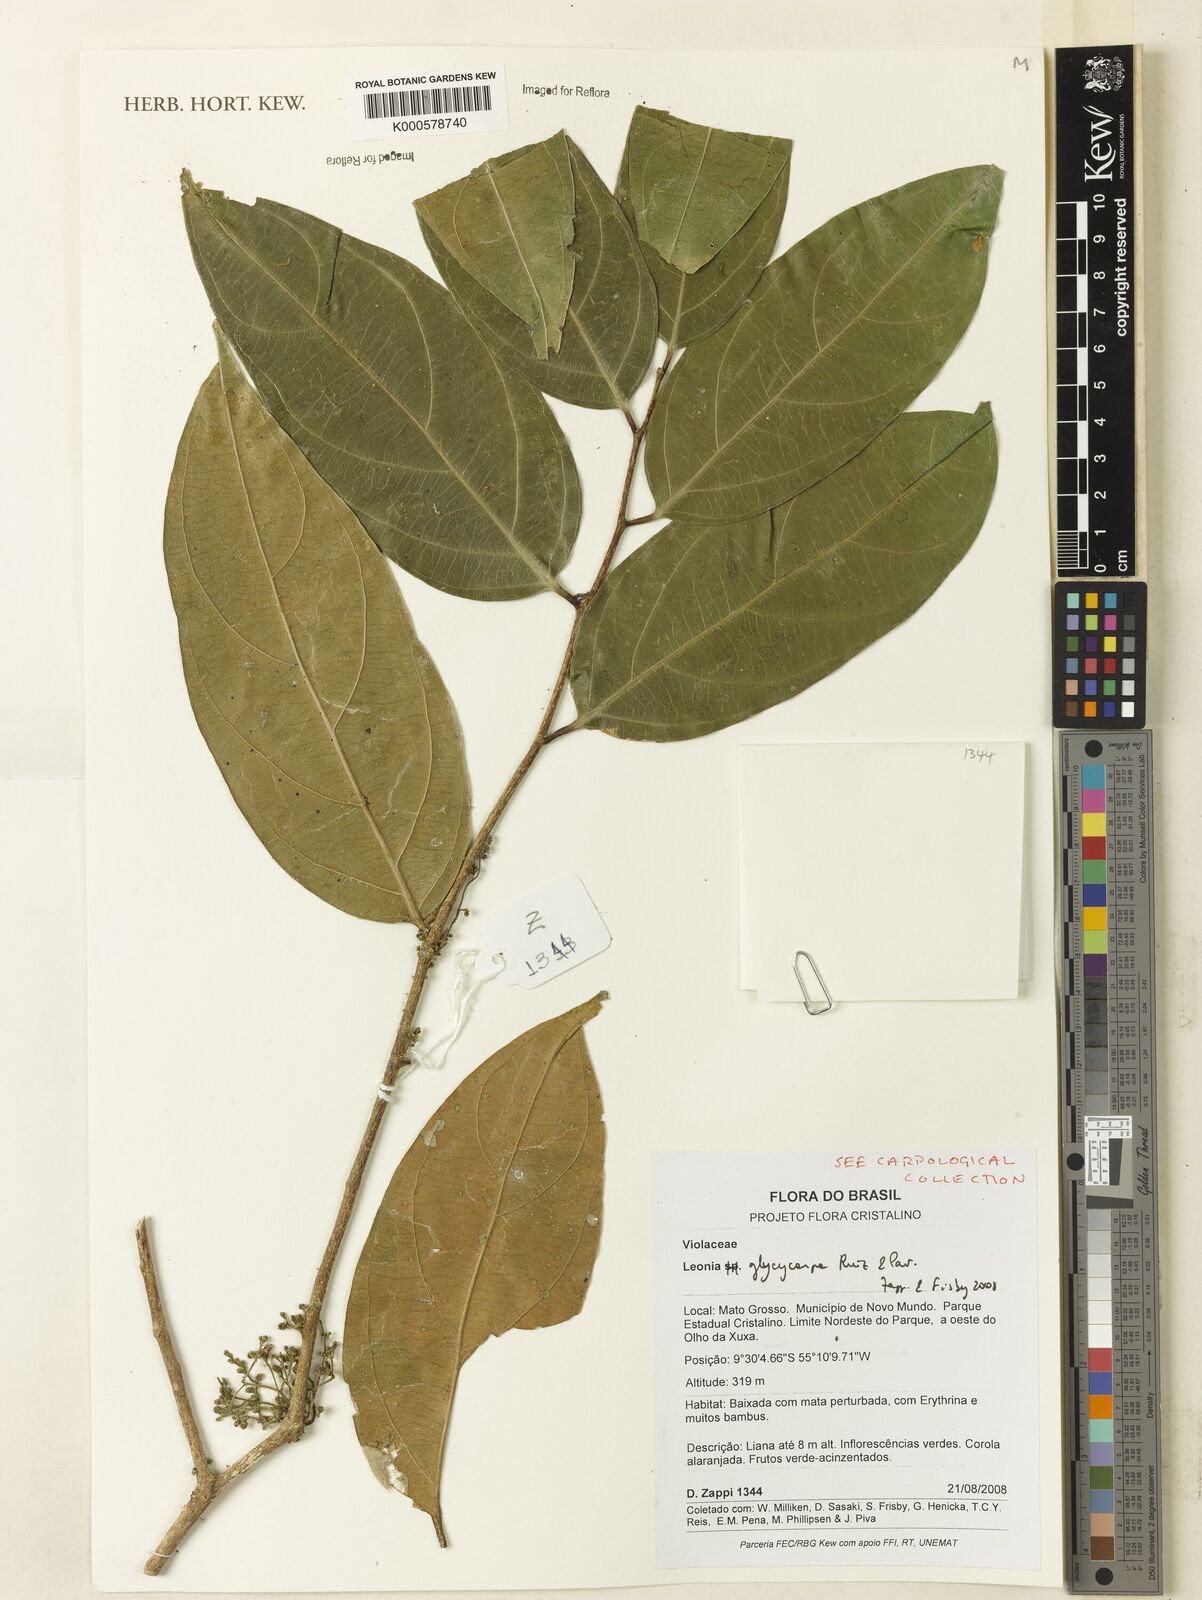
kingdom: Plantae
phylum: Tracheophyta
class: Magnoliopsida
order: Malpighiales
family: Violaceae
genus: Leonia
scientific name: Leonia glycycarpa
